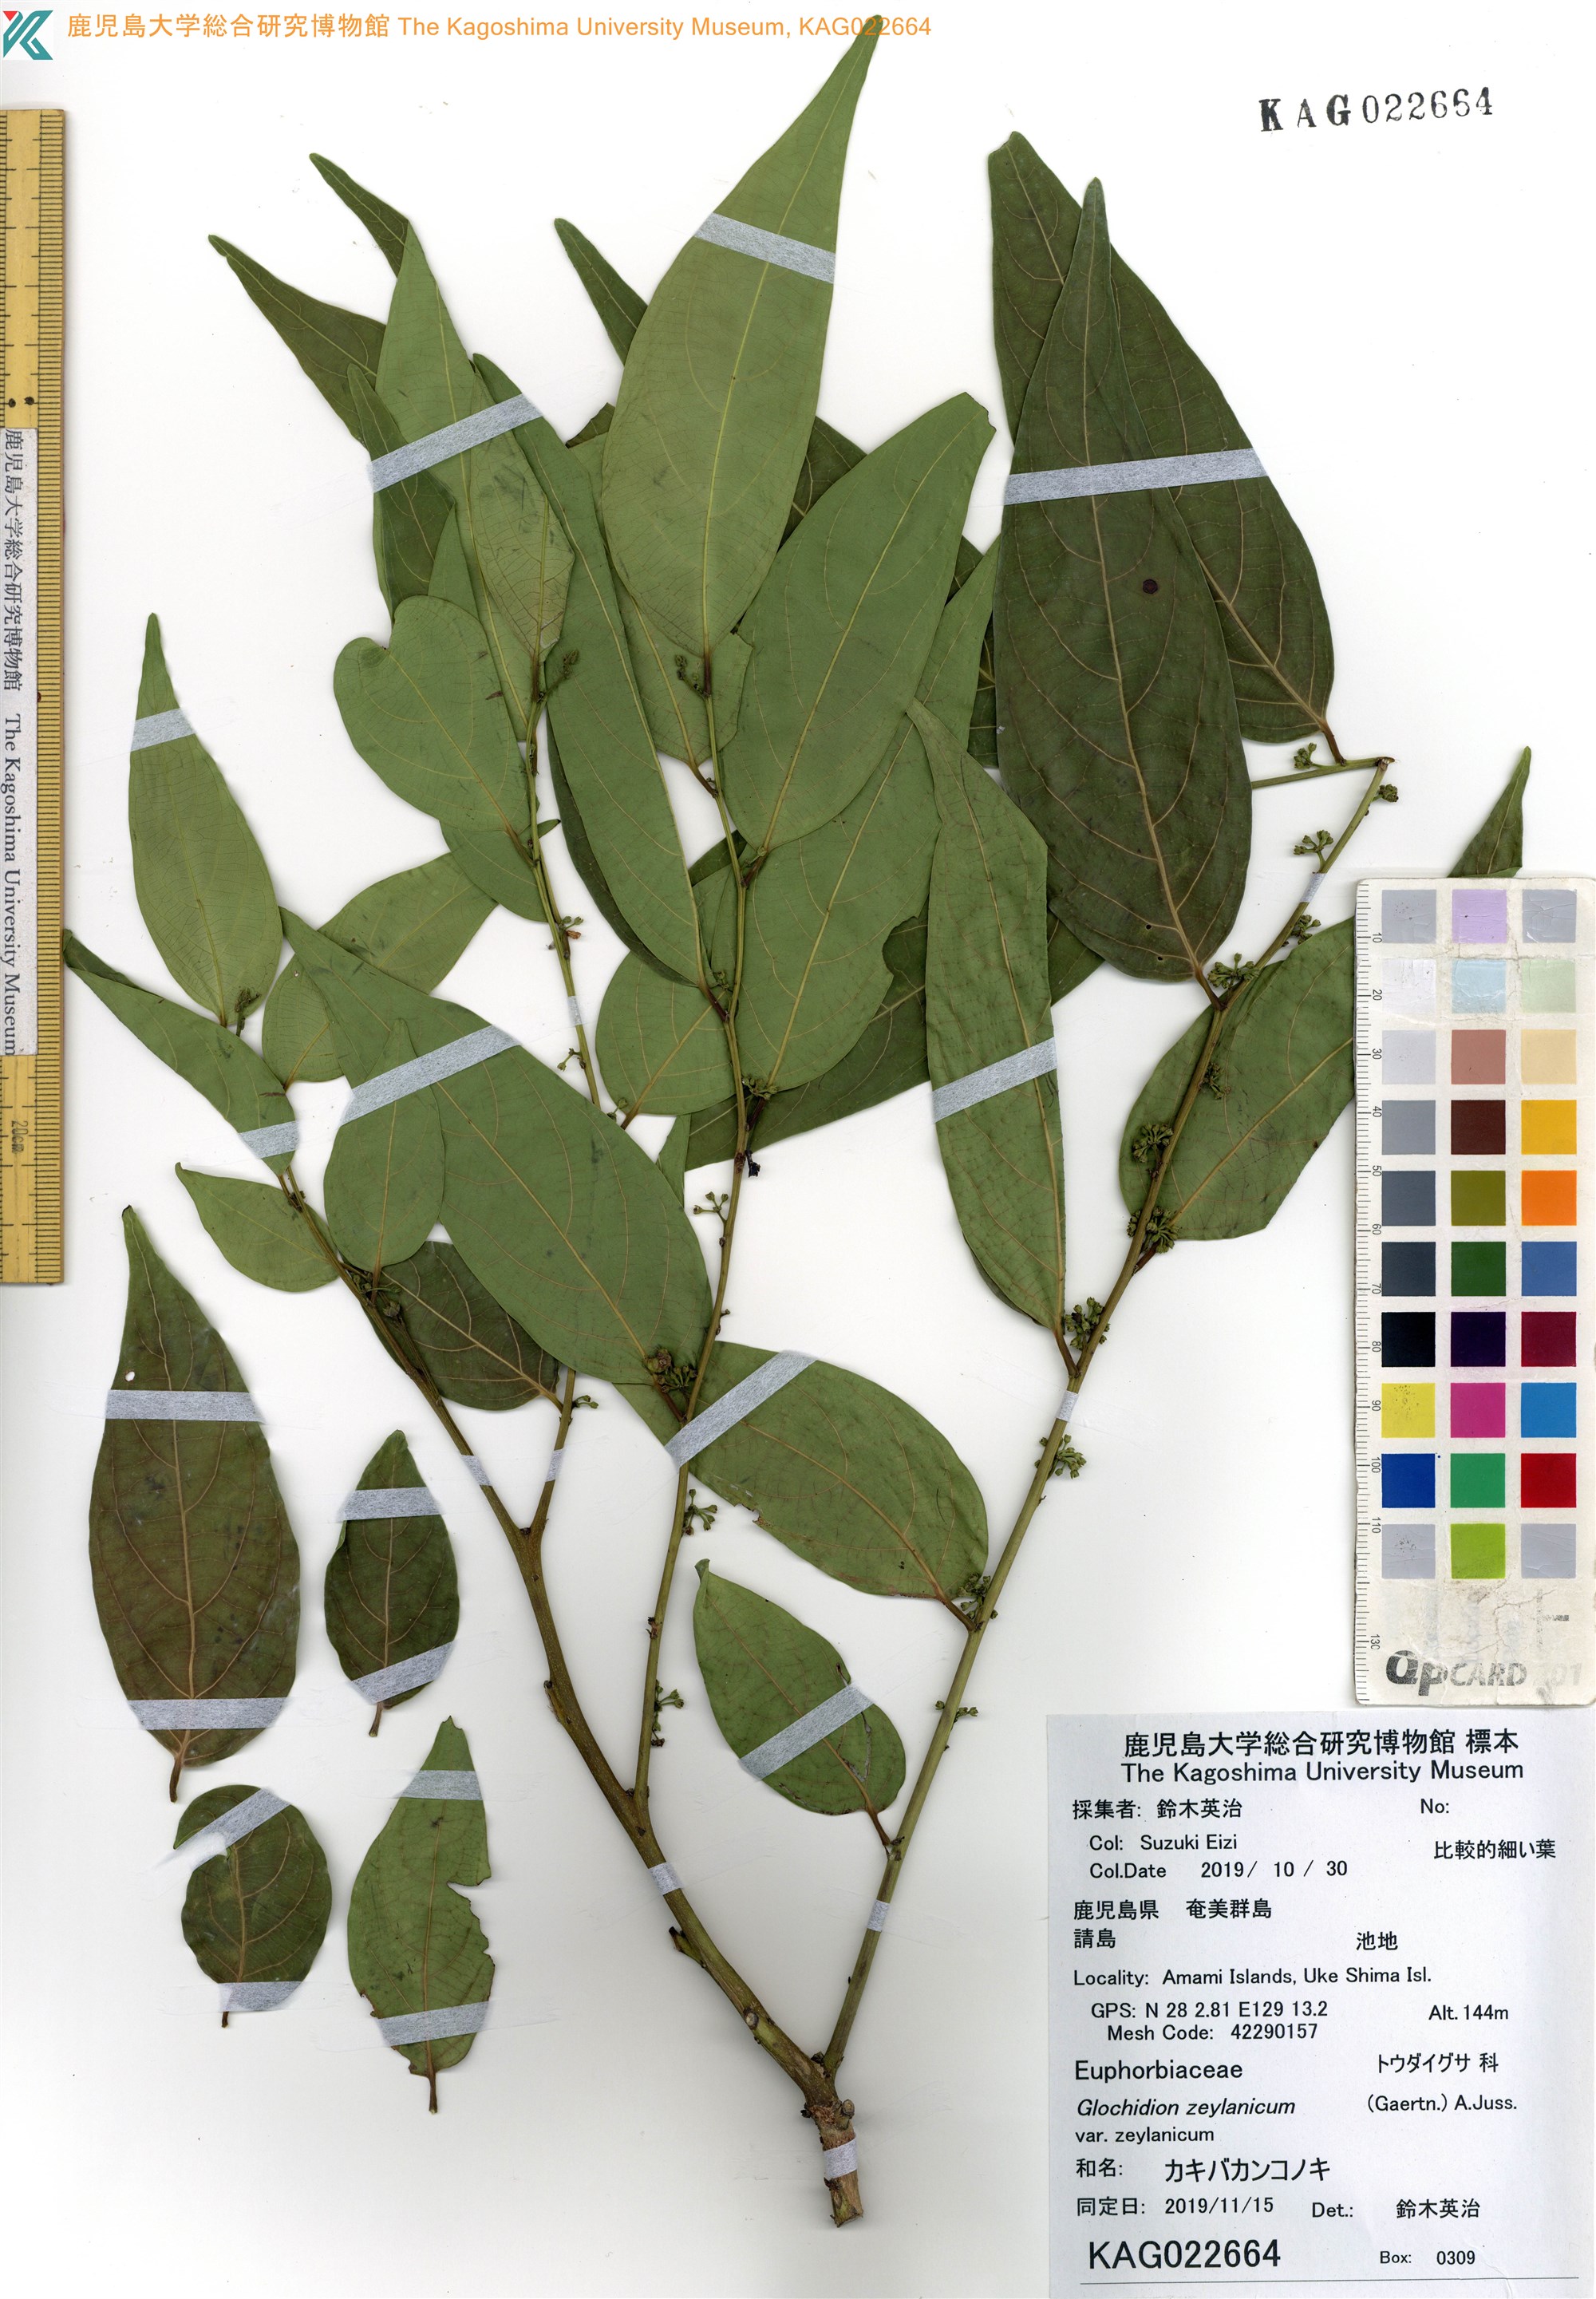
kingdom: Plantae
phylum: Tracheophyta
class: Magnoliopsida
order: Malpighiales
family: Phyllanthaceae
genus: Glochidion
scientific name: Glochidion lanceolatum
